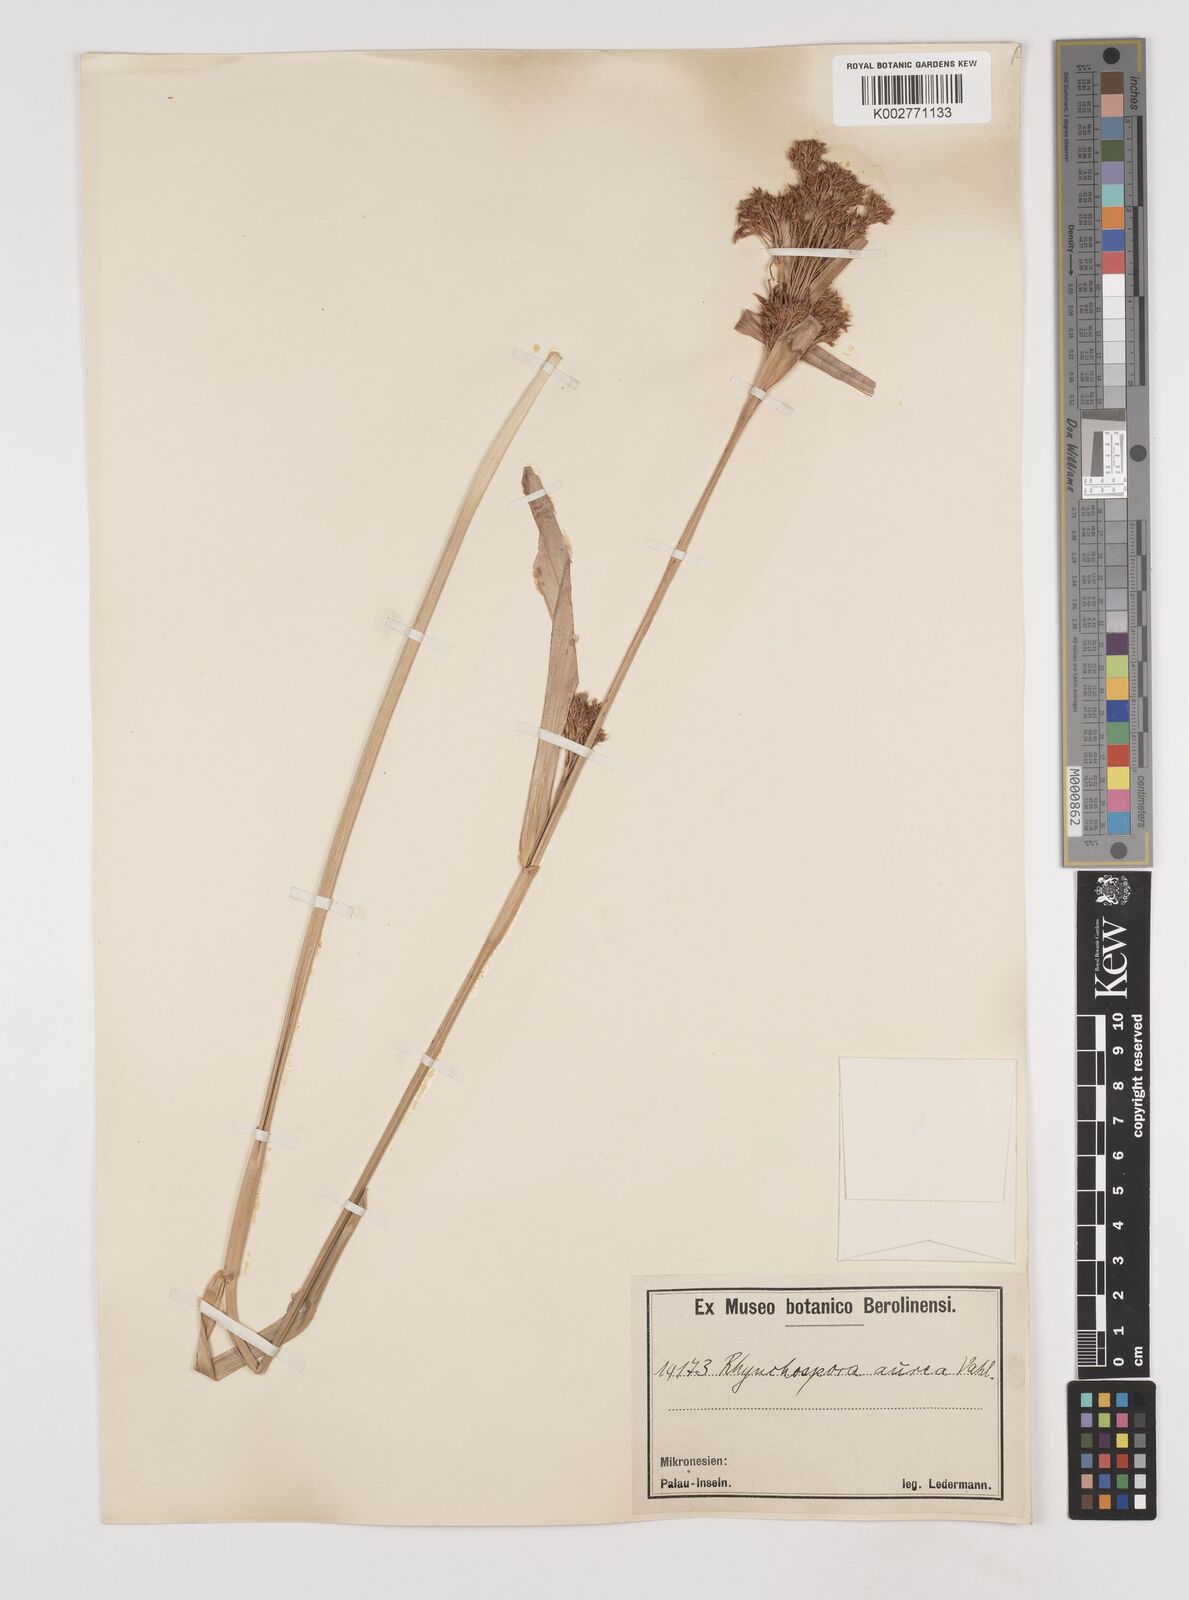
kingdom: Plantae
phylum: Tracheophyta
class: Liliopsida
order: Poales
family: Cyperaceae
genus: Rhynchospora
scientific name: Rhynchospora corymbosa
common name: Golden beak sedge
